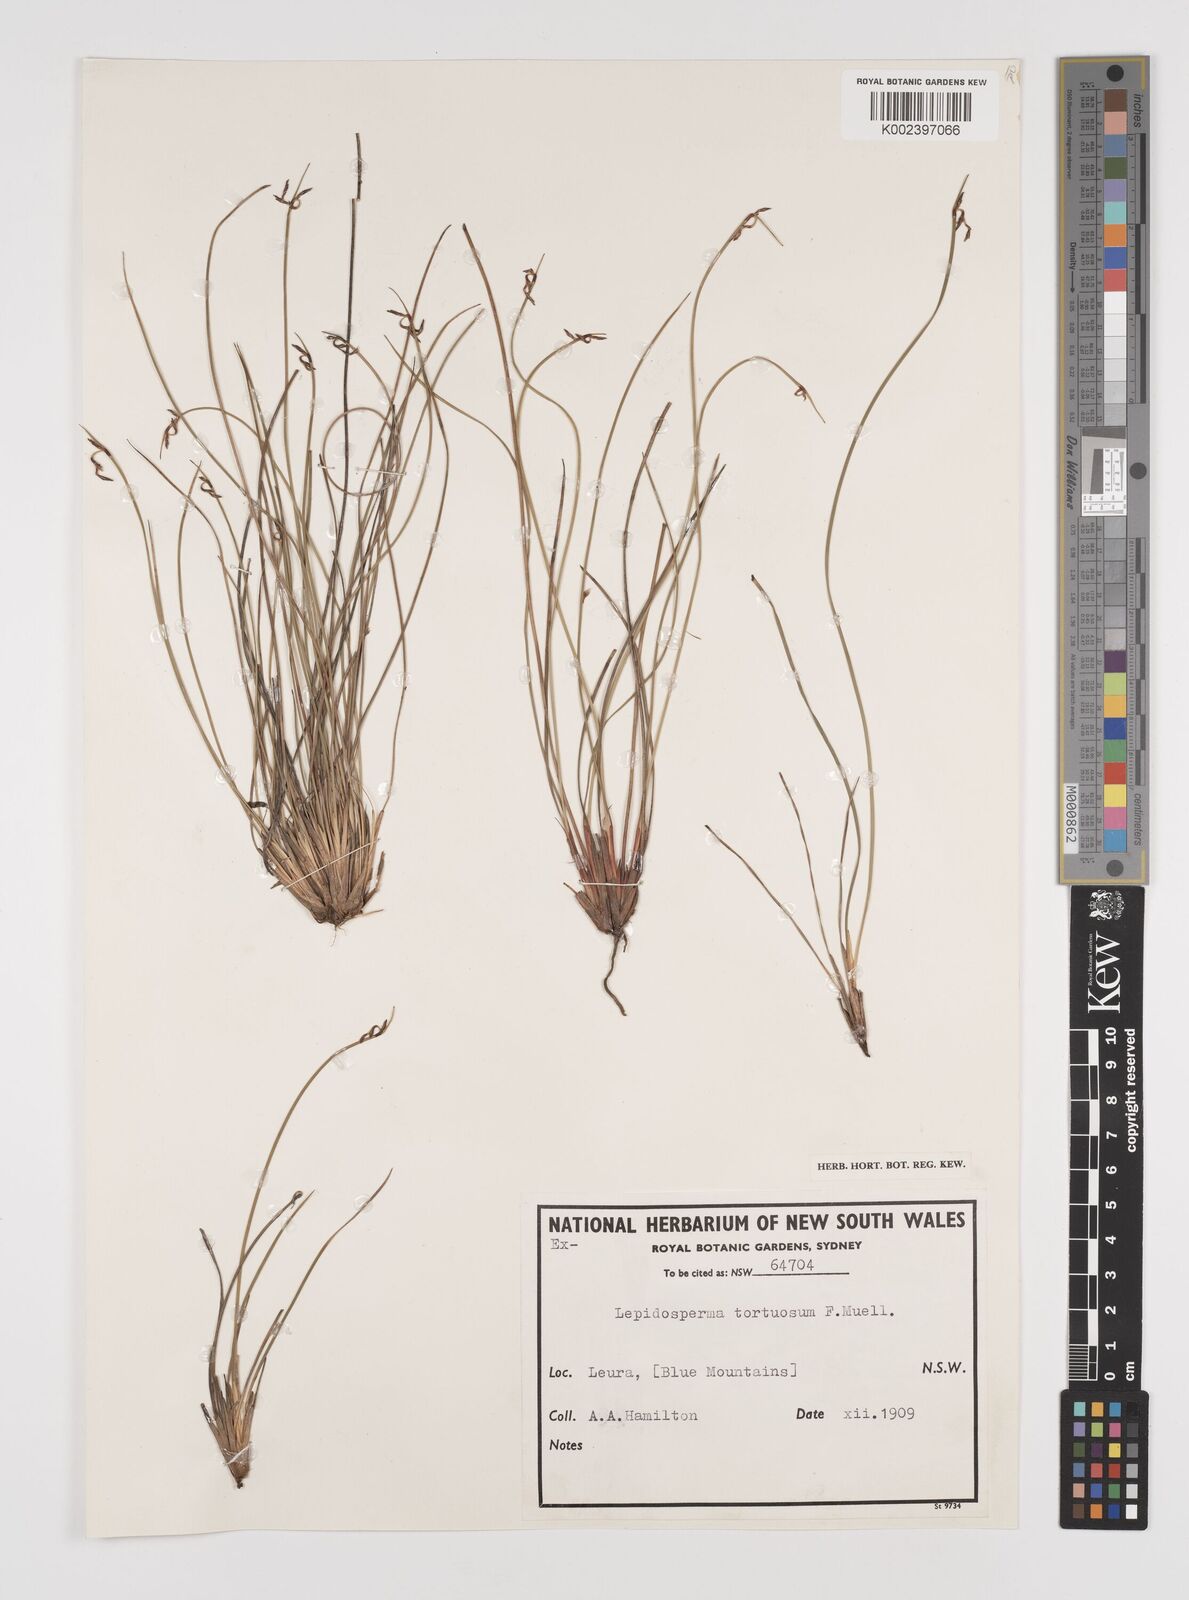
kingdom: Plantae
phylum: Tracheophyta
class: Liliopsida
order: Poales
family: Cyperaceae
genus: Lepidosperma
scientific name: Lepidosperma tortuosum
